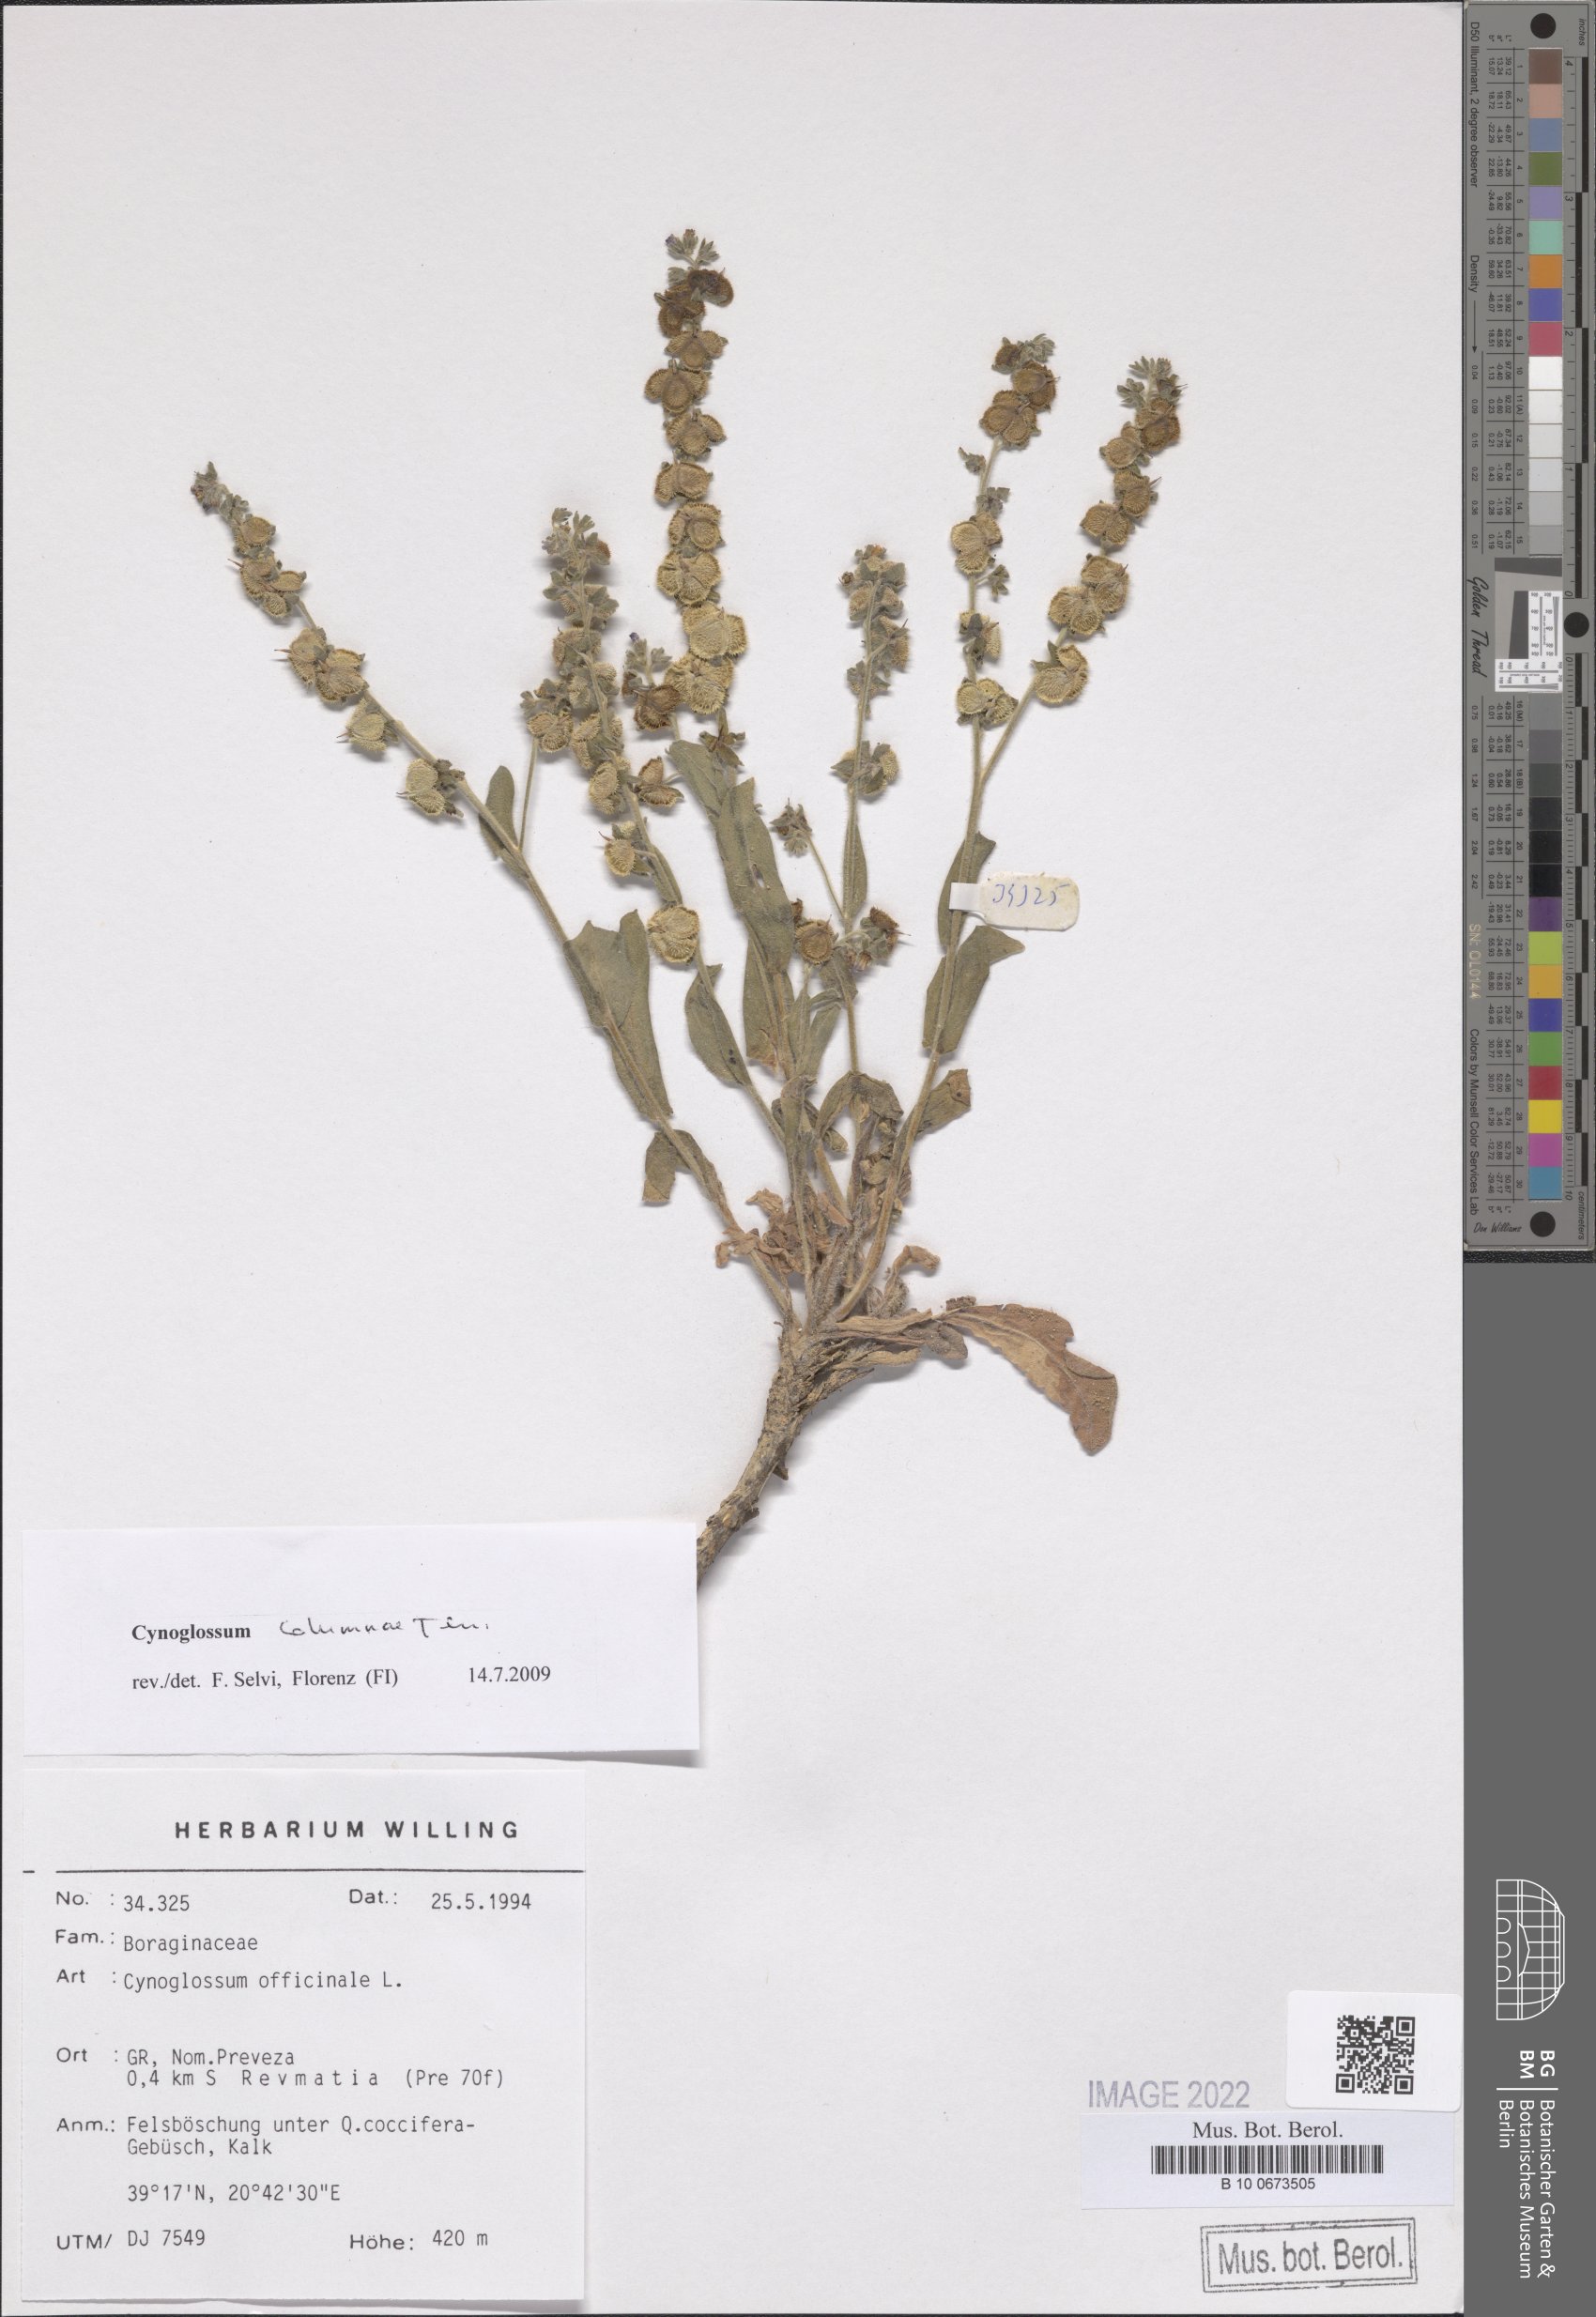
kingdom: Plantae
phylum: Tracheophyta
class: Magnoliopsida
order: Boraginales
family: Boraginaceae
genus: Rindera
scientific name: Rindera columnae
